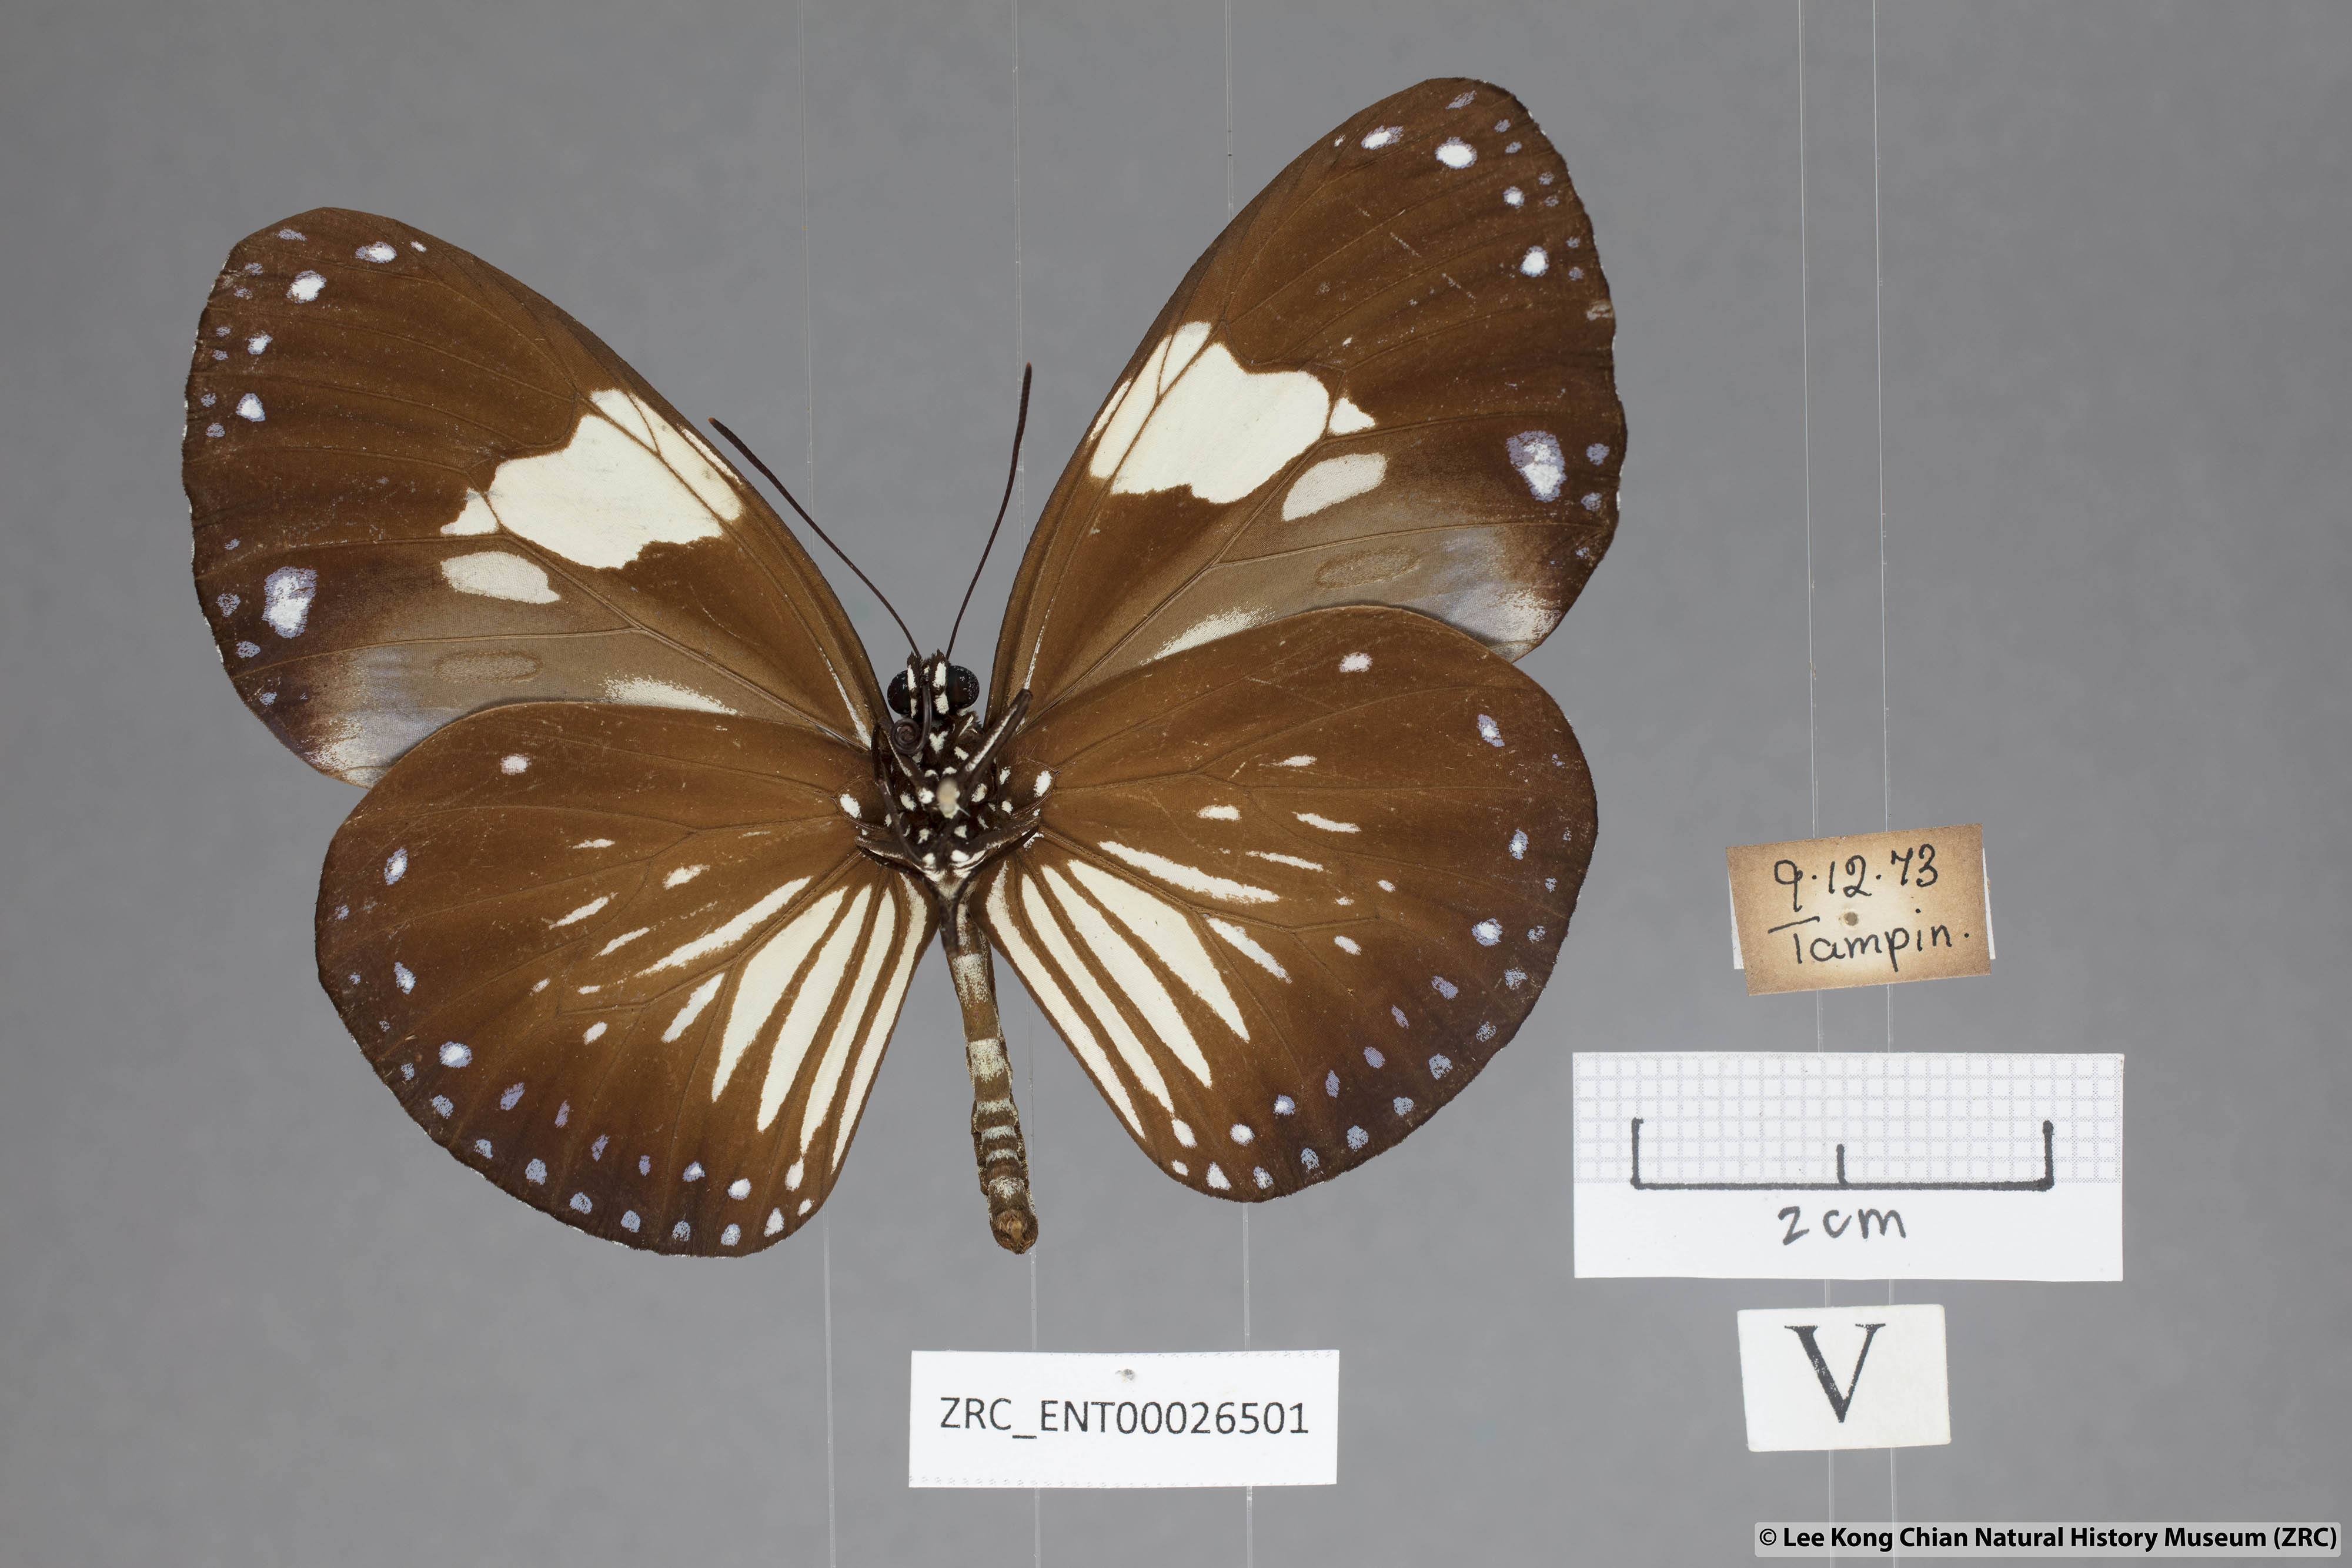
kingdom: Animalia
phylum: Arthropoda
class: Insecta
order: Lepidoptera
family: Nymphalidae
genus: Euploea
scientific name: Euploea radamanthus
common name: Magpie crow butterfly
